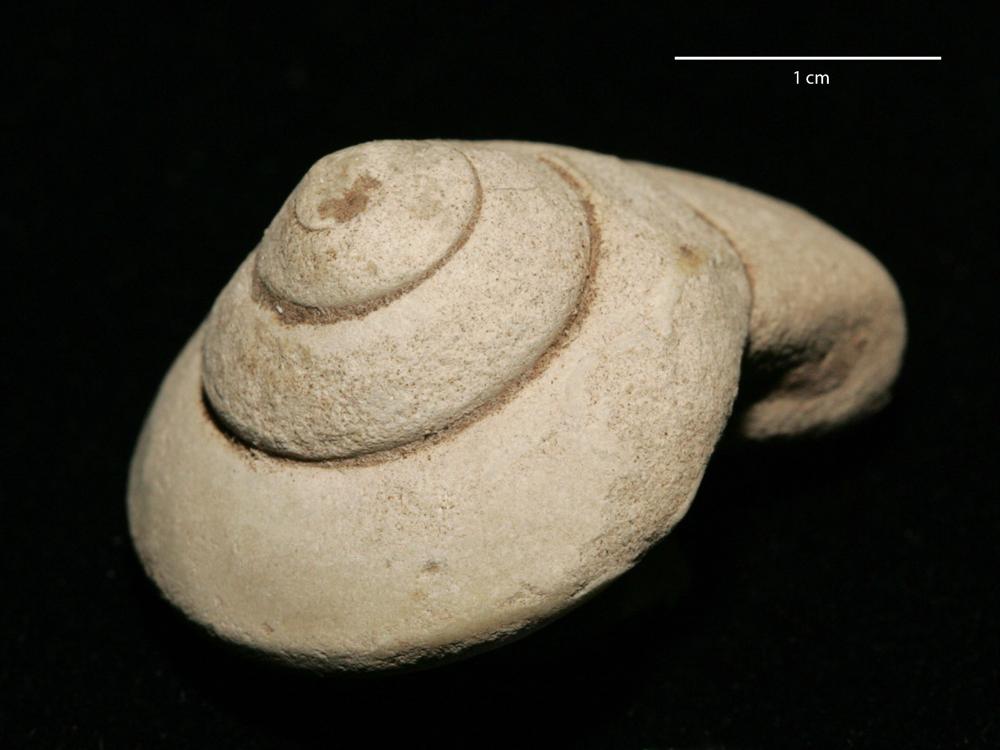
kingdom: Animalia
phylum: Mollusca
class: Gastropoda
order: Pleurotomariida
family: Gosseletinidae
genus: Deacheospira
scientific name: Deacheospira Pleurotomaria inflata
